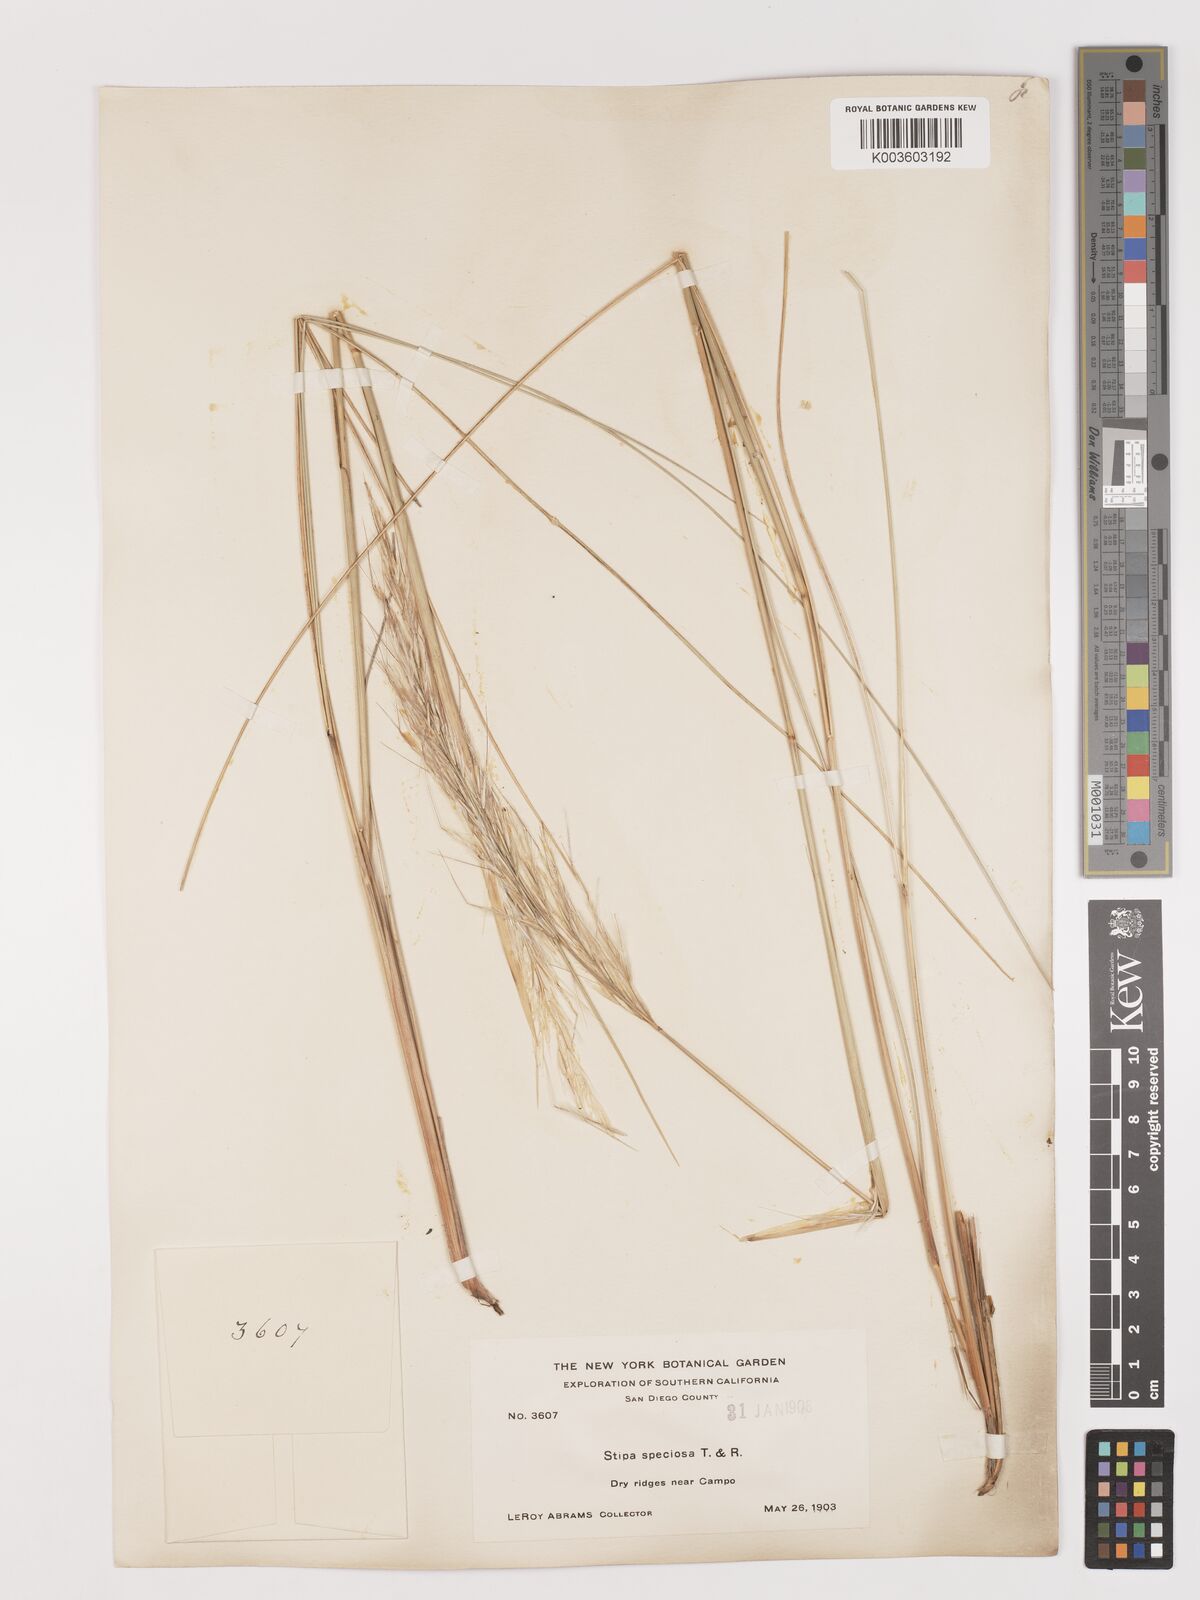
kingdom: Plantae
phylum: Tracheophyta
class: Liliopsida
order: Poales
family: Poaceae
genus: Pappostipa
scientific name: Pappostipa speciosa
